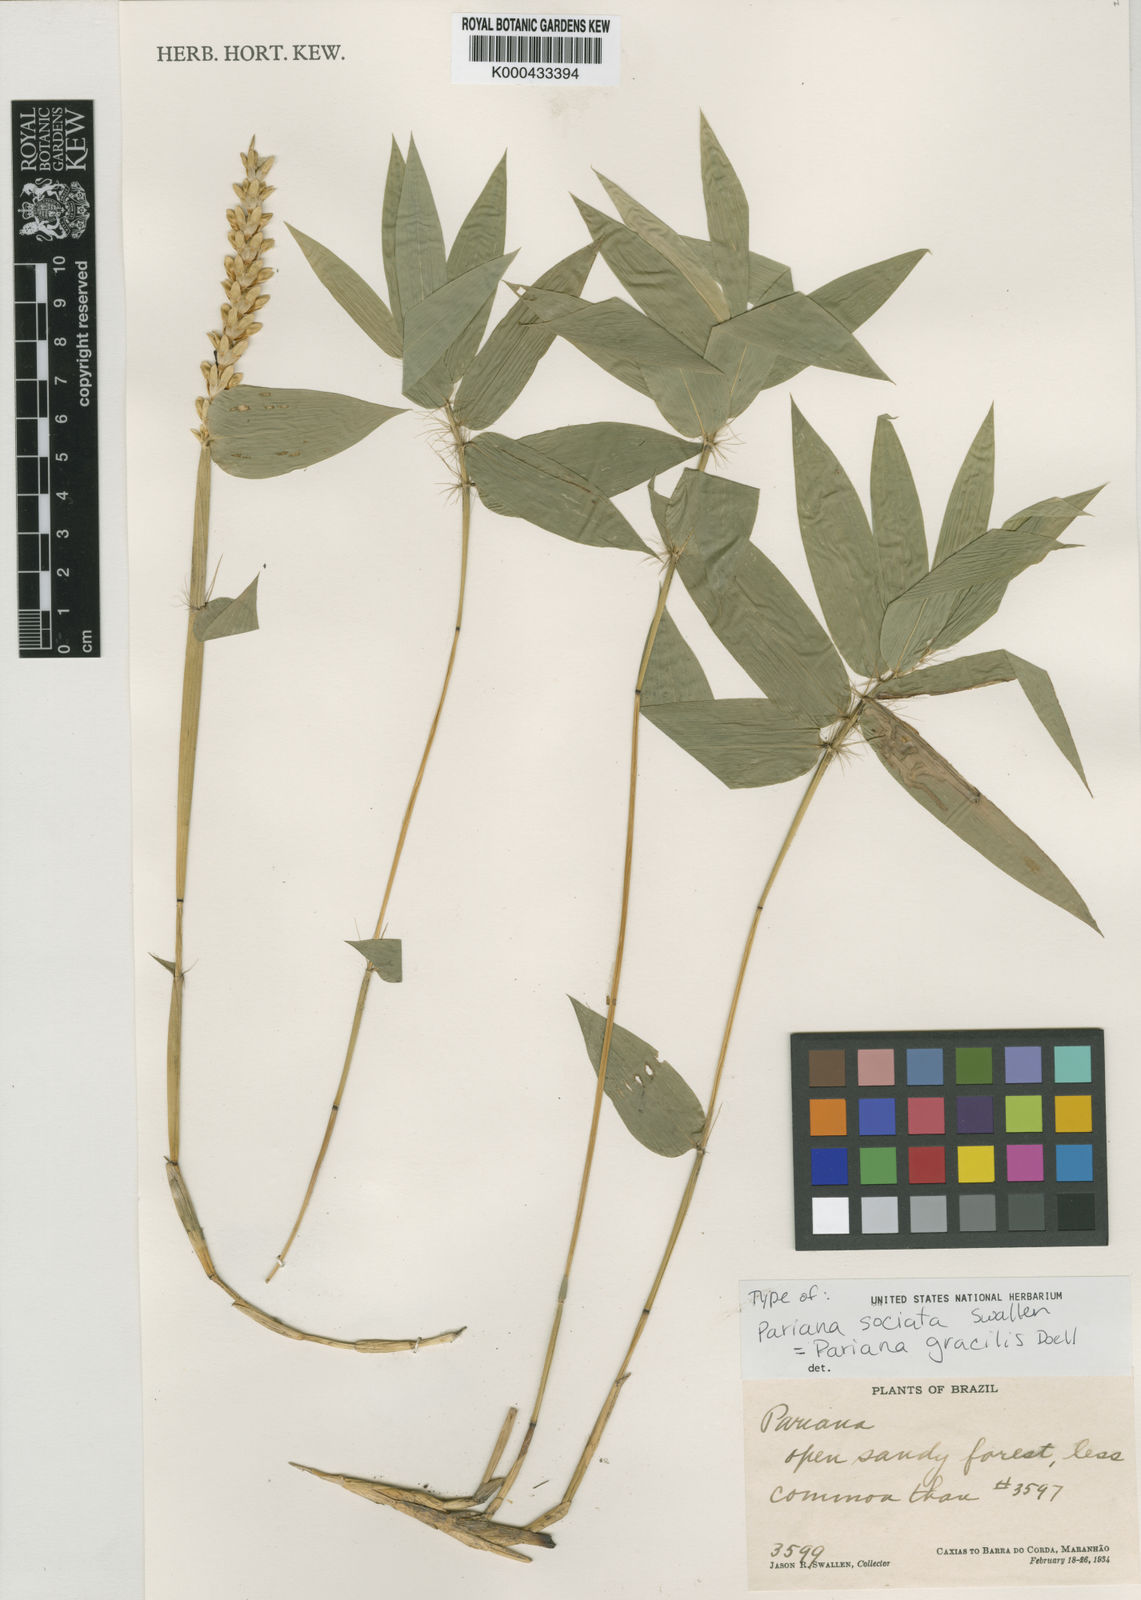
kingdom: Plantae
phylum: Tracheophyta
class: Liliopsida
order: Poales
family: Poaceae
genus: Pariana
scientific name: Pariana
